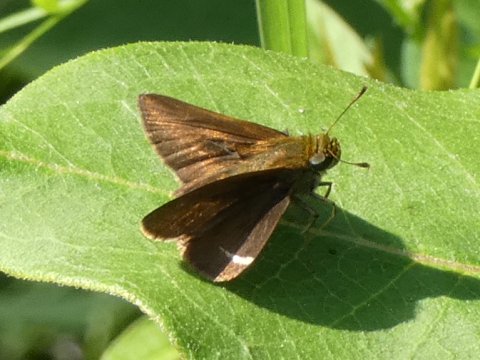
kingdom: Animalia
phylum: Arthropoda
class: Insecta
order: Lepidoptera
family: Hesperiidae
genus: Euphyes
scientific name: Euphyes vestris
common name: Dun Skipper
